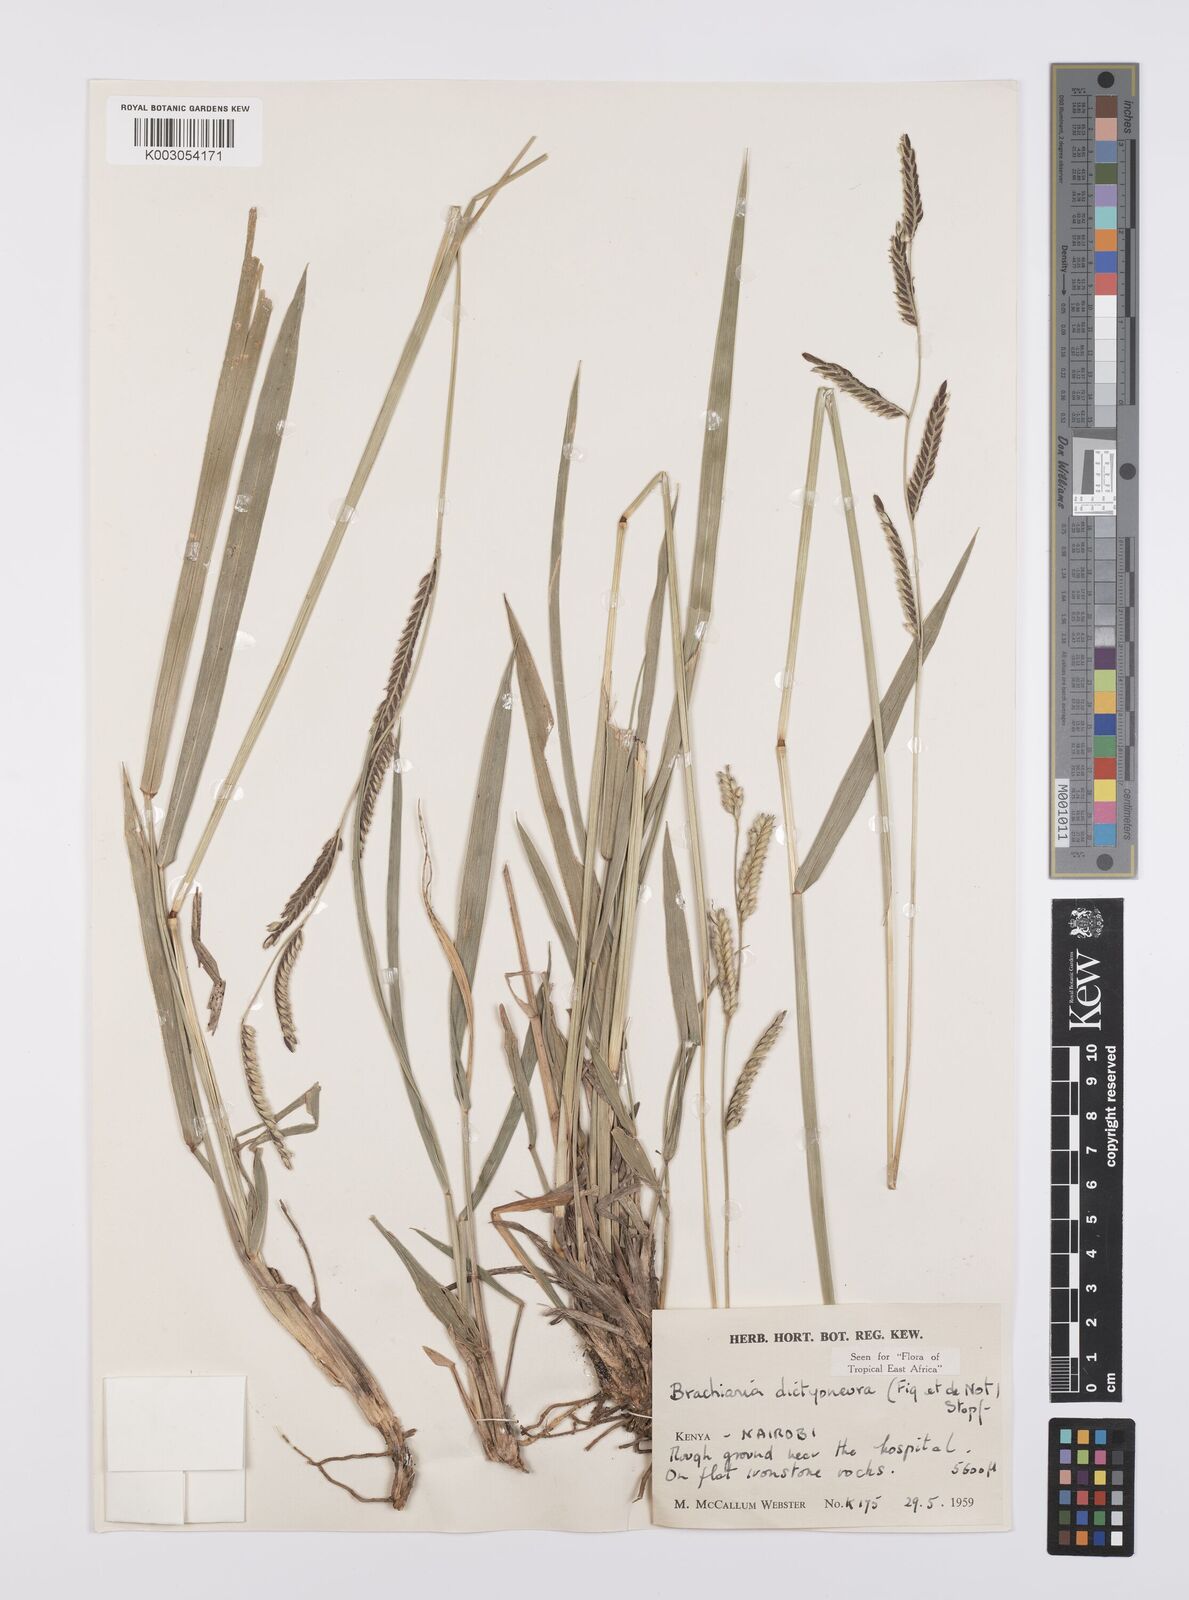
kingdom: Plantae
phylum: Tracheophyta
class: Liliopsida
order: Poales
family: Poaceae
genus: Urochloa
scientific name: Urochloa dictyoneura
